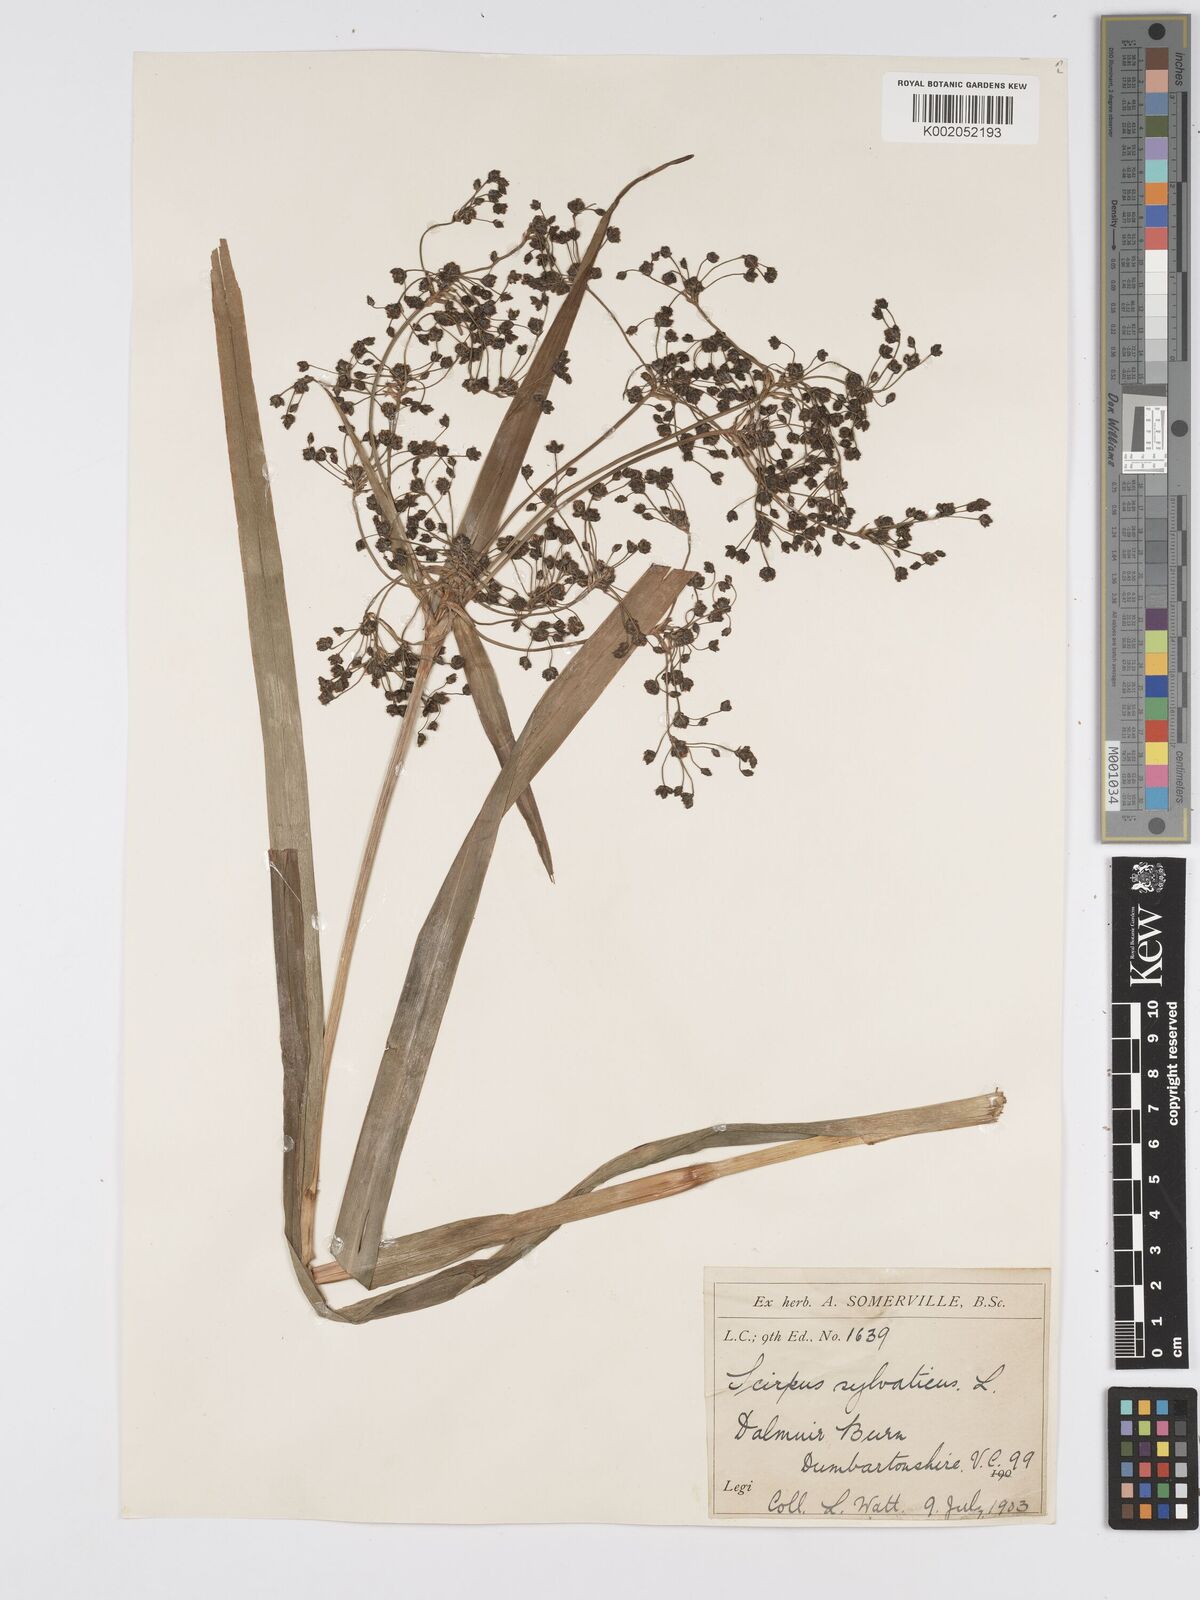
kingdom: Plantae
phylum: Tracheophyta
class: Liliopsida
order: Poales
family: Cyperaceae
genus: Scirpus
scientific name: Scirpus sylvaticus
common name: Wood club-rush
